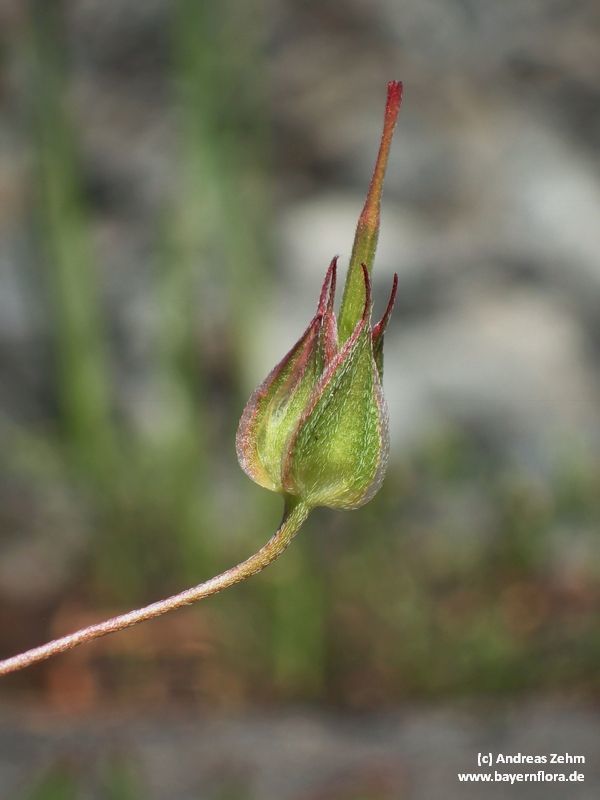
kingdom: Plantae
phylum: Tracheophyta
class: Magnoliopsida
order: Geraniales
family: Geraniaceae
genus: Geranium
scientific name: Geranium columbinum
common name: Long-stalked crane's-bill
